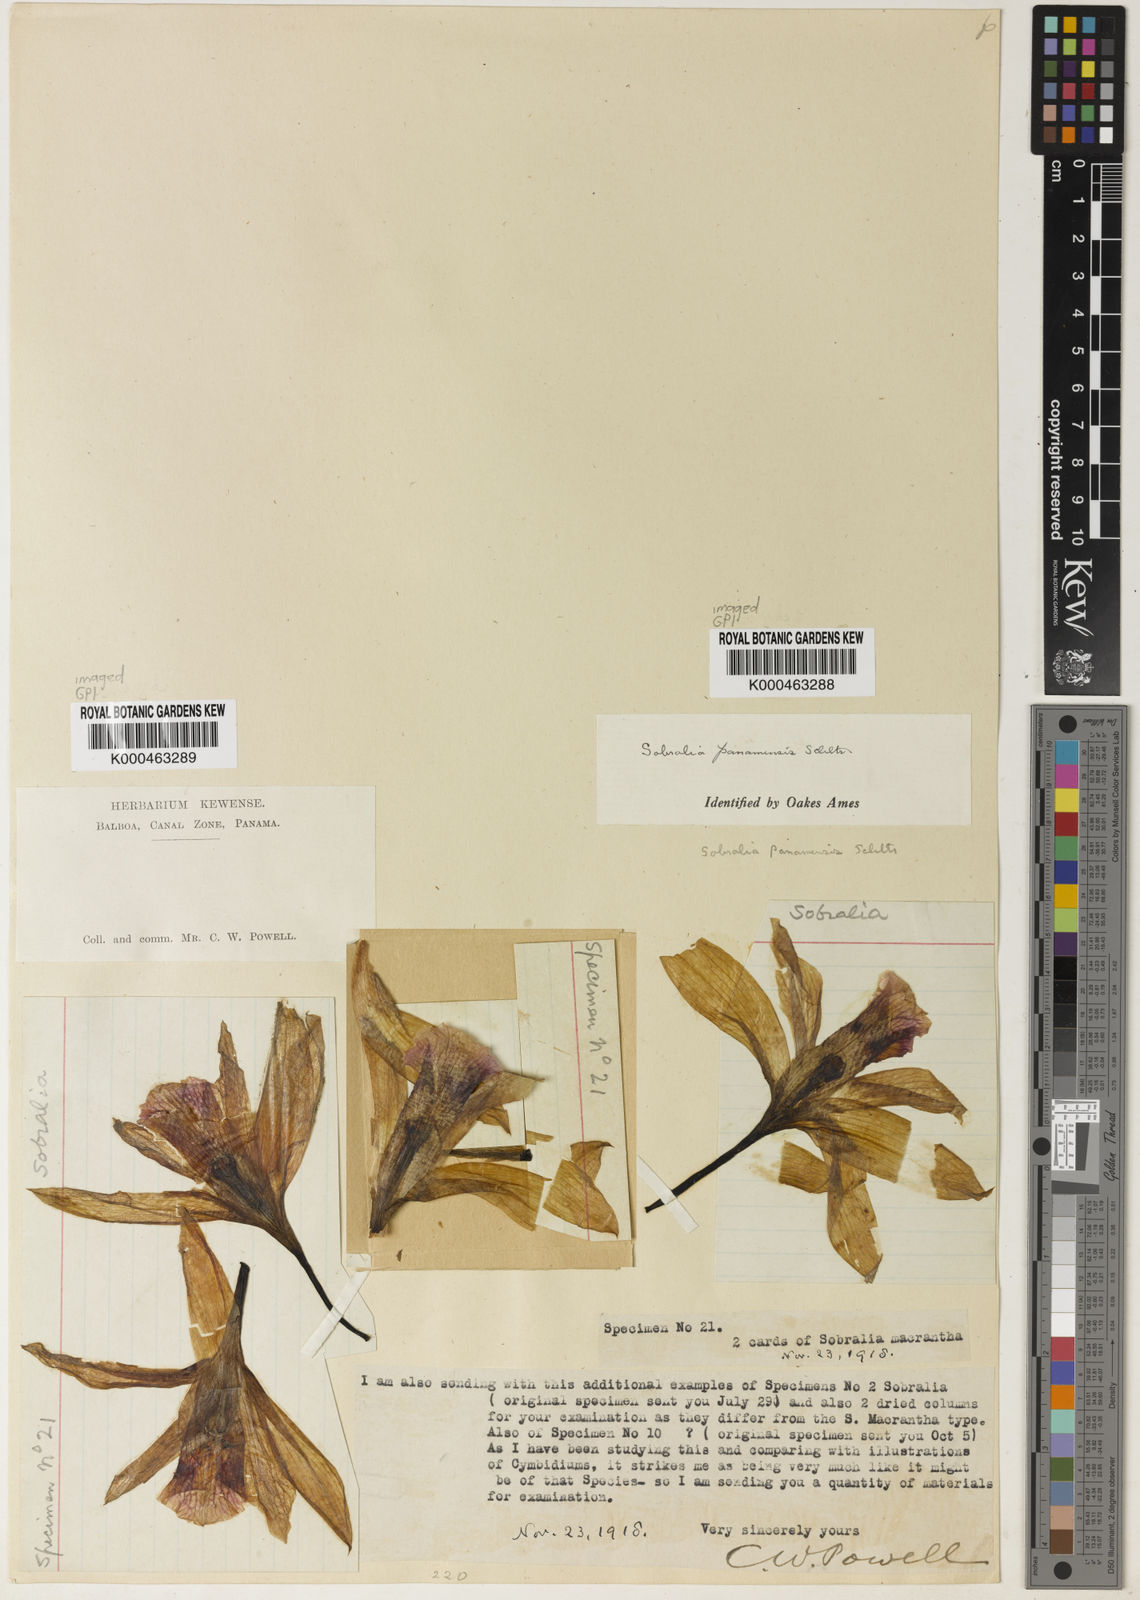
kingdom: Plantae
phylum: Tracheophyta
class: Liliopsida
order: Asparagales
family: Orchidaceae
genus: Sobralia
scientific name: Sobralia decora
